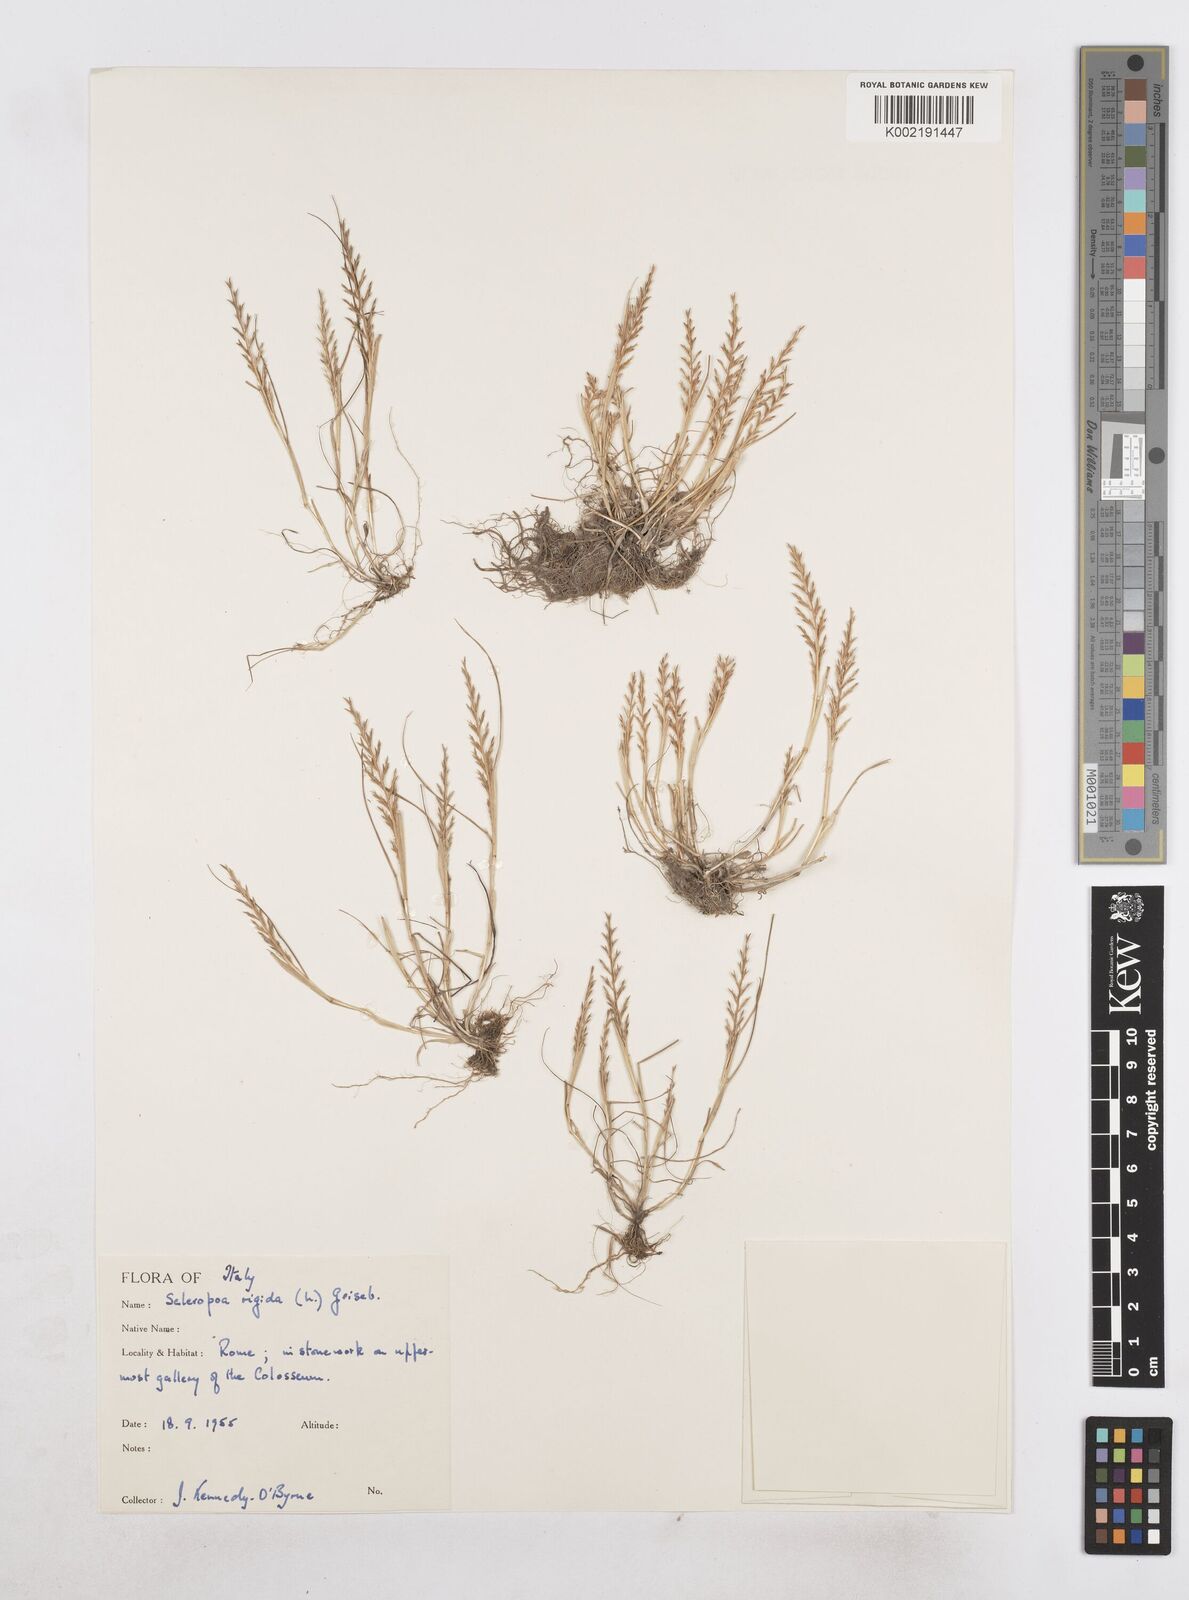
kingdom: Plantae
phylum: Tracheophyta
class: Liliopsida
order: Poales
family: Poaceae
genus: Catapodium
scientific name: Catapodium rigidum
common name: Fern-grass
